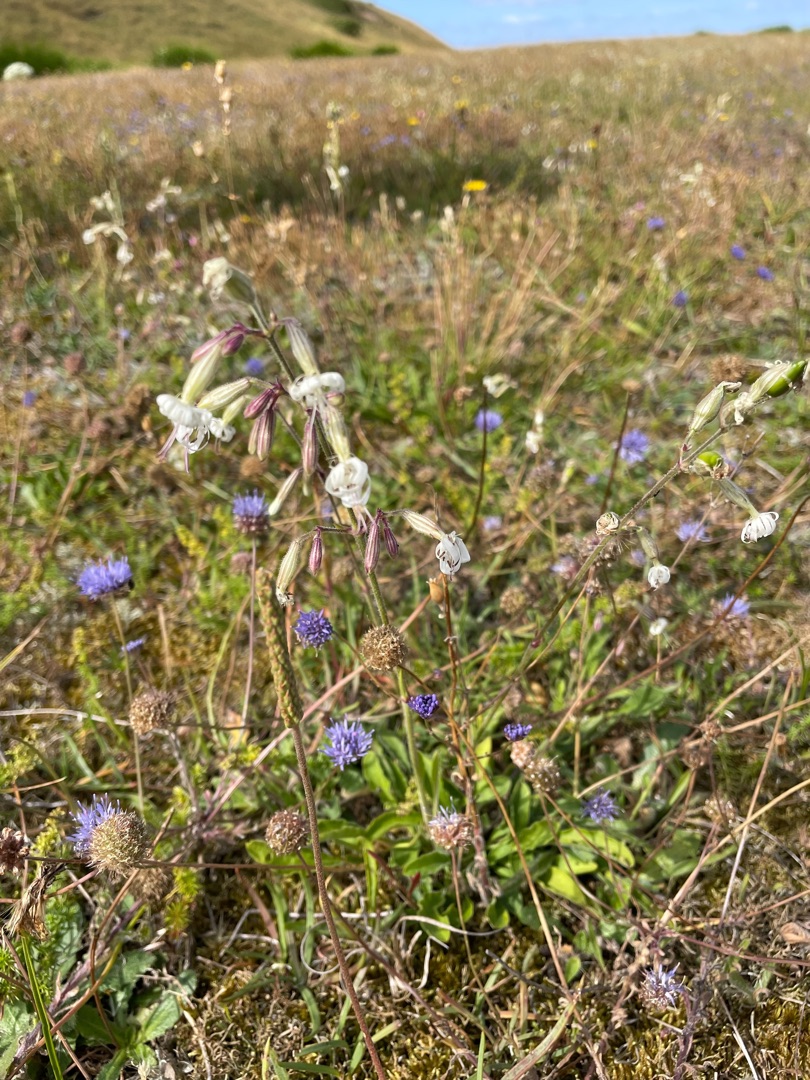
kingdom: Plantae
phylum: Tracheophyta
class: Magnoliopsida
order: Asterales
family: Campanulaceae
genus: Jasione
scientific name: Jasione montana
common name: Blåmunke
